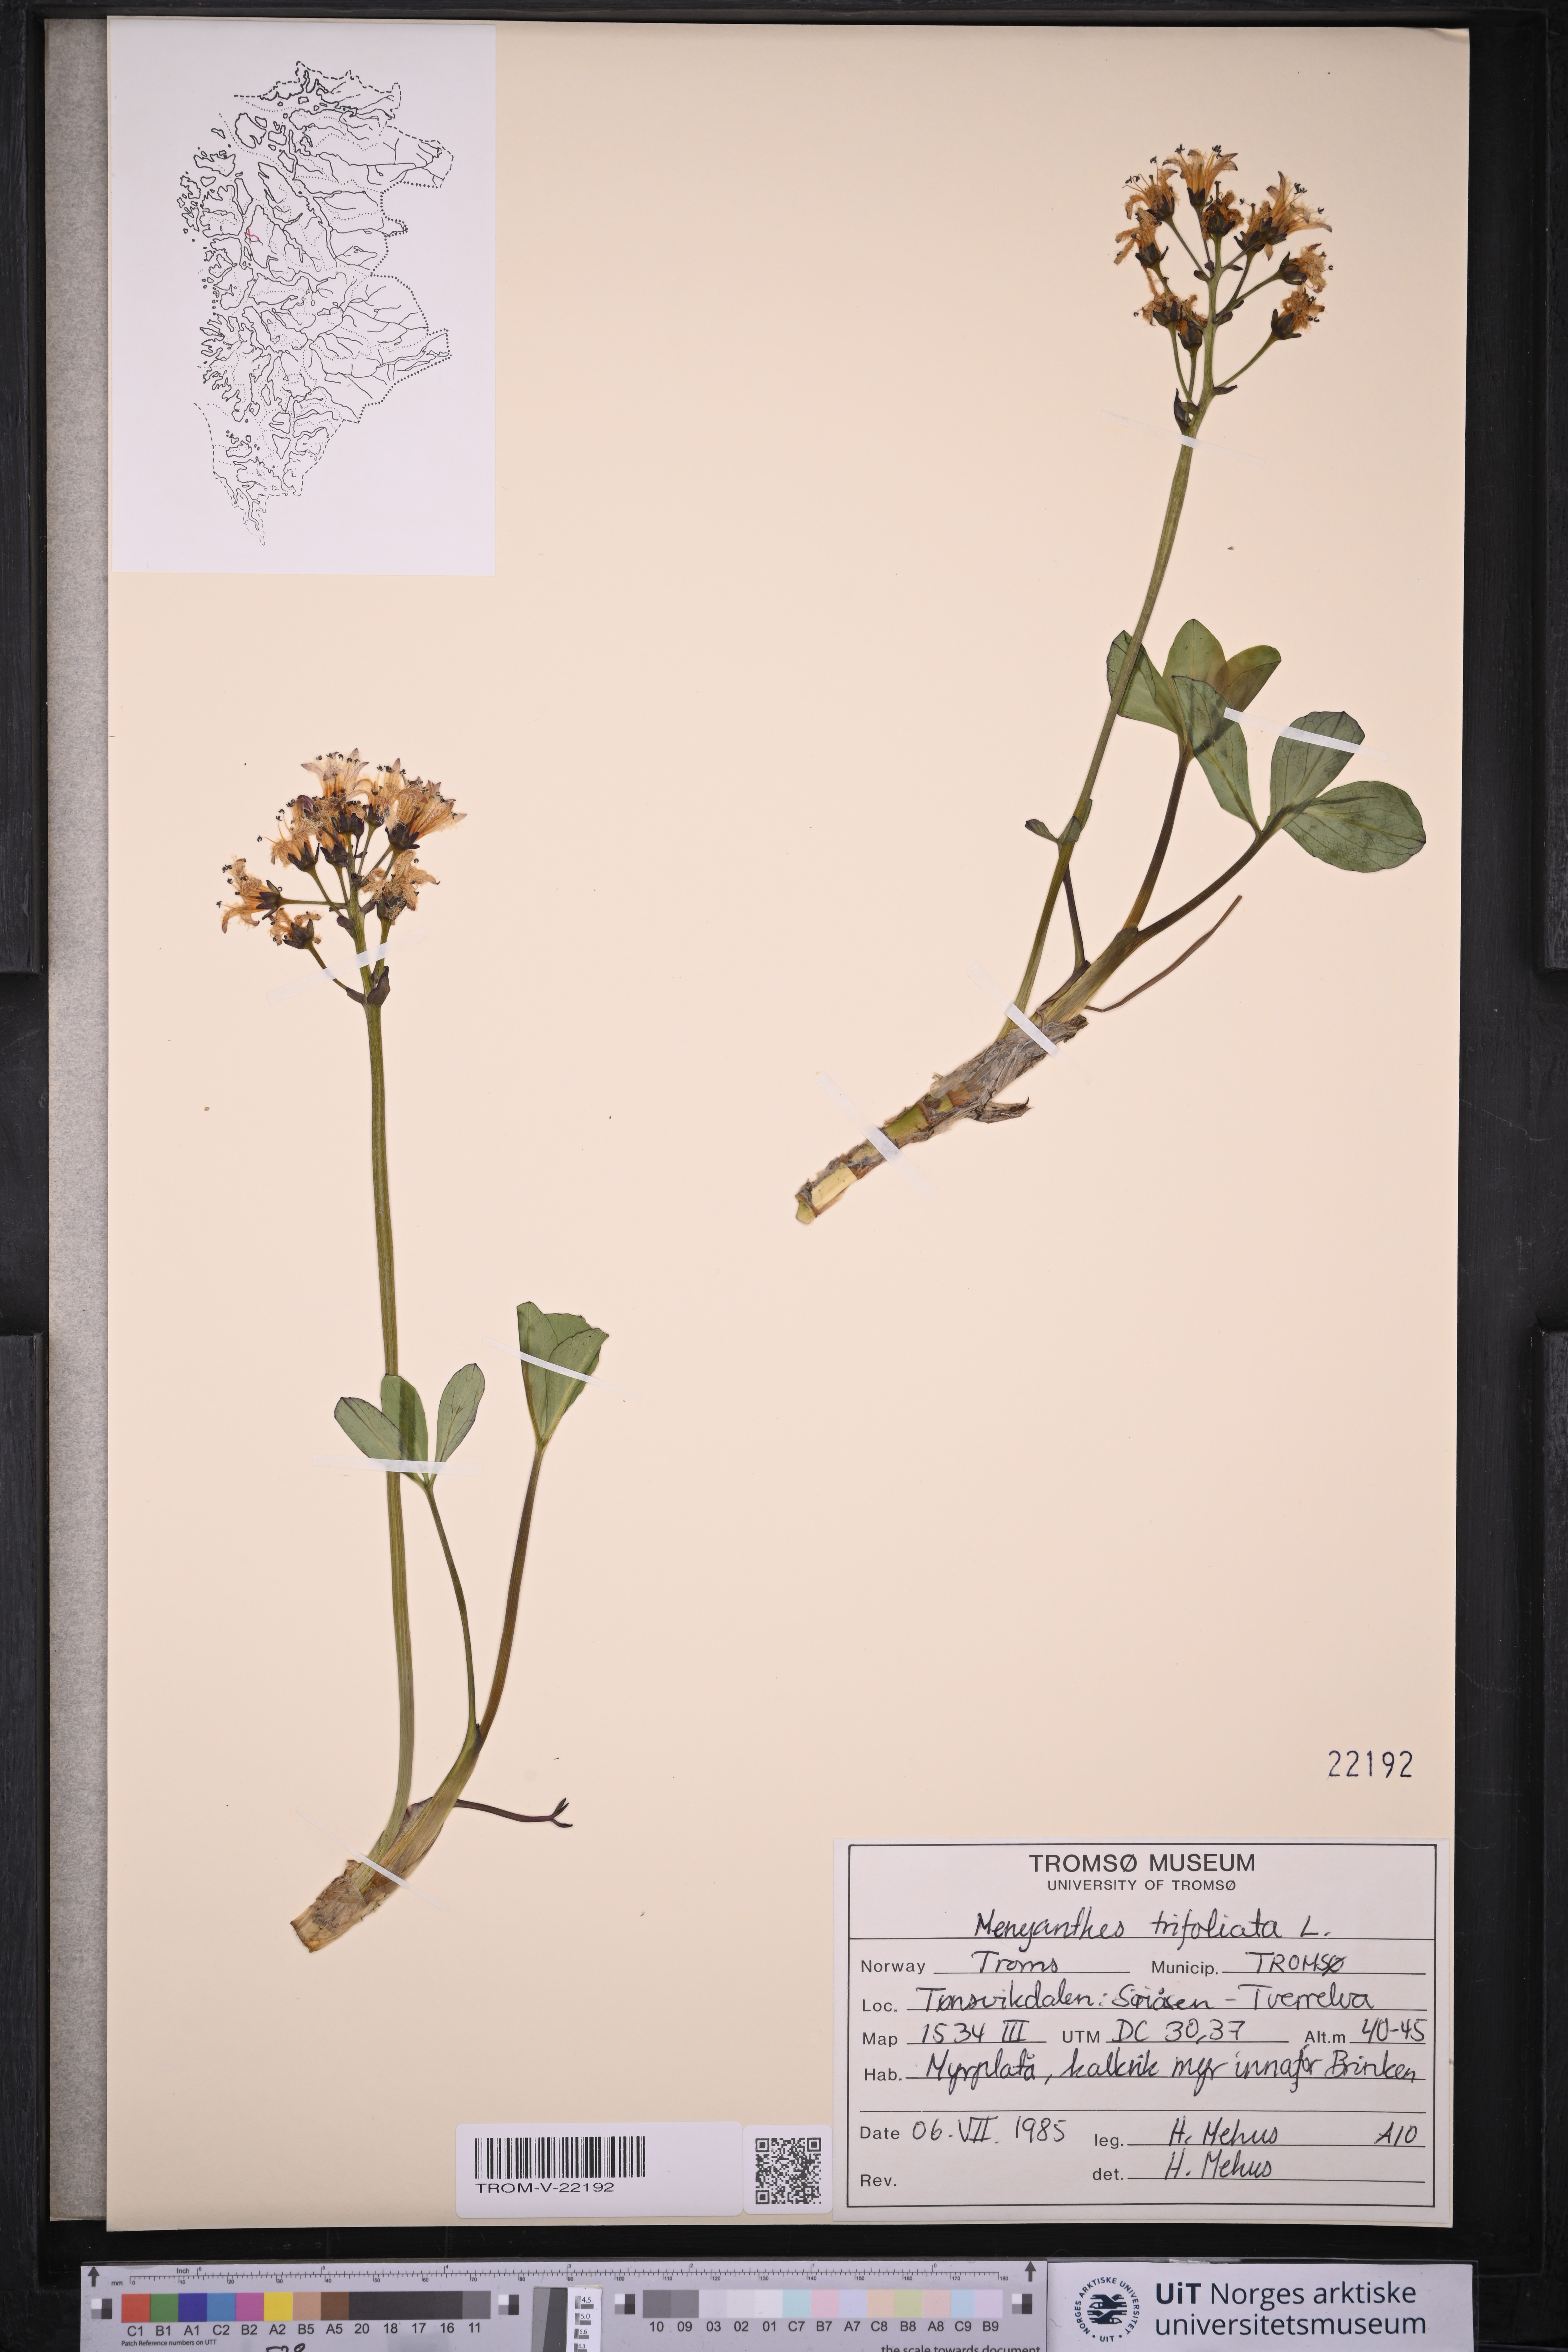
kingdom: Plantae
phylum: Tracheophyta
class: Magnoliopsida
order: Asterales
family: Menyanthaceae
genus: Menyanthes
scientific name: Menyanthes trifoliata
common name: Bogbean
